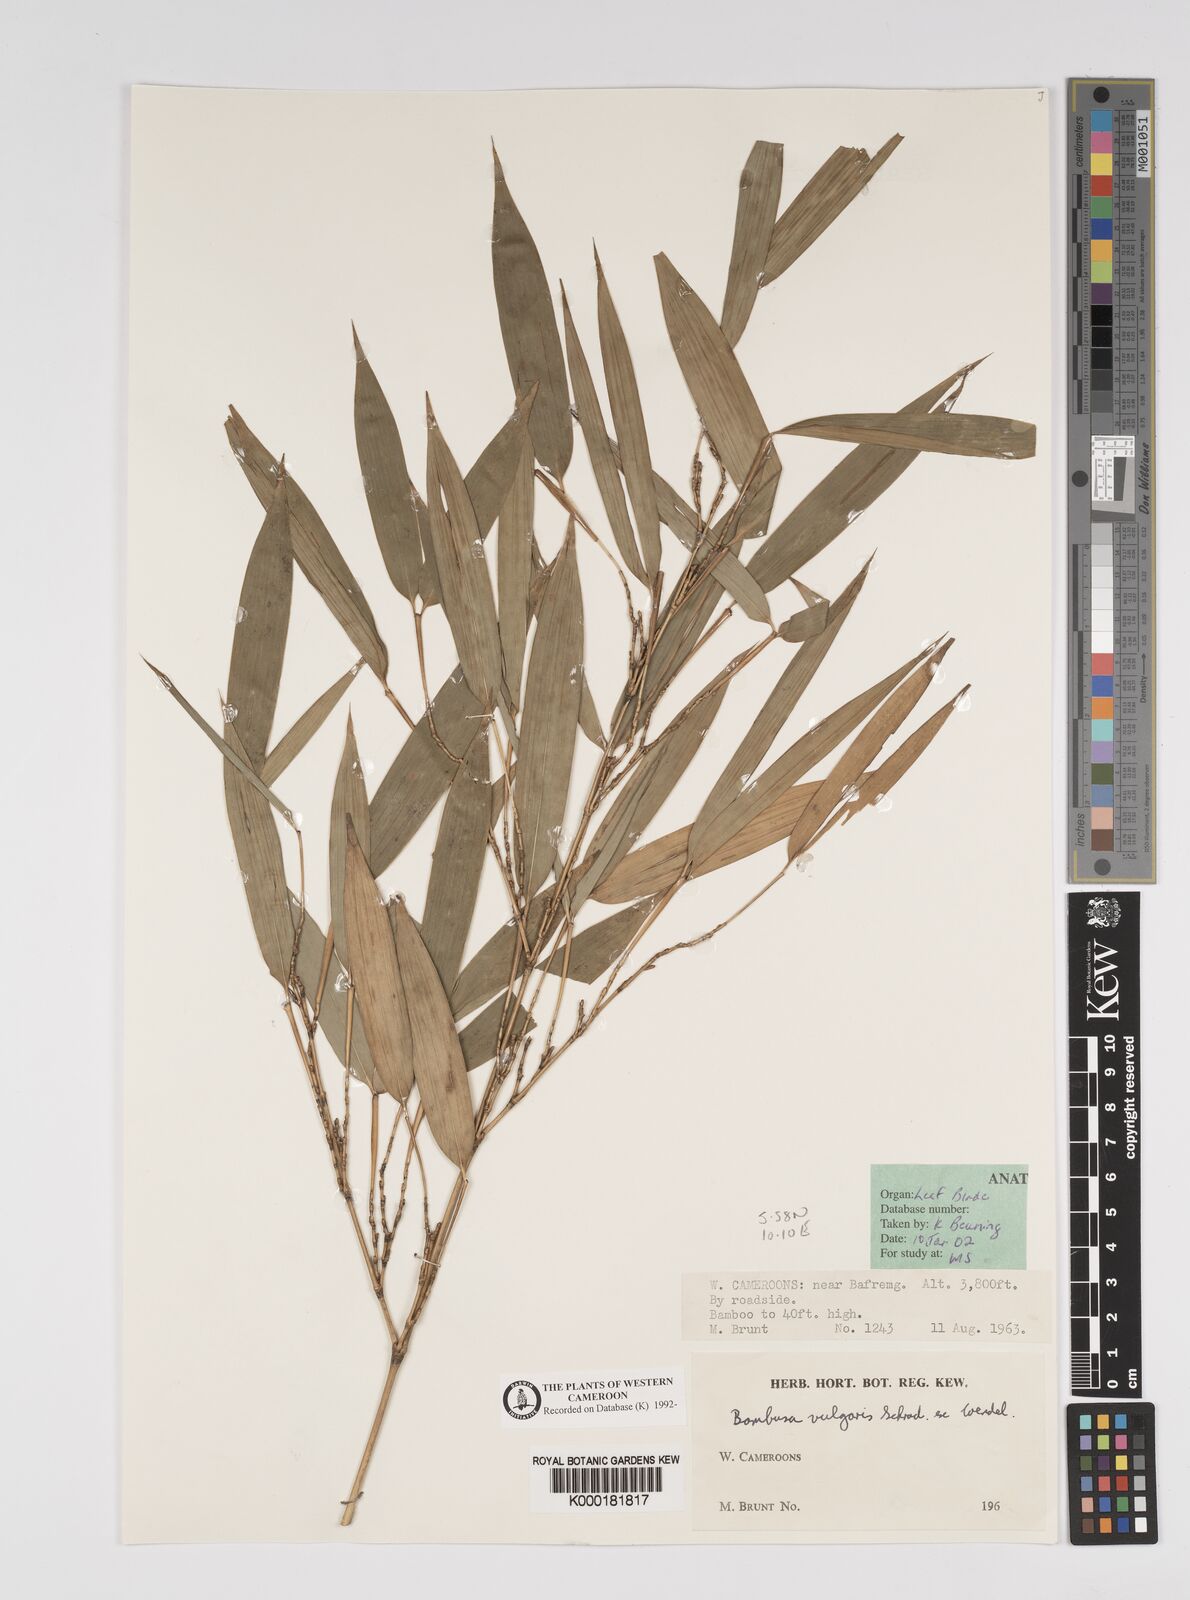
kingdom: Plantae
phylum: Tracheophyta
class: Liliopsida
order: Poales
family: Poaceae
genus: Bambusa
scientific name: Bambusa vulgaris
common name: Common bamboo
